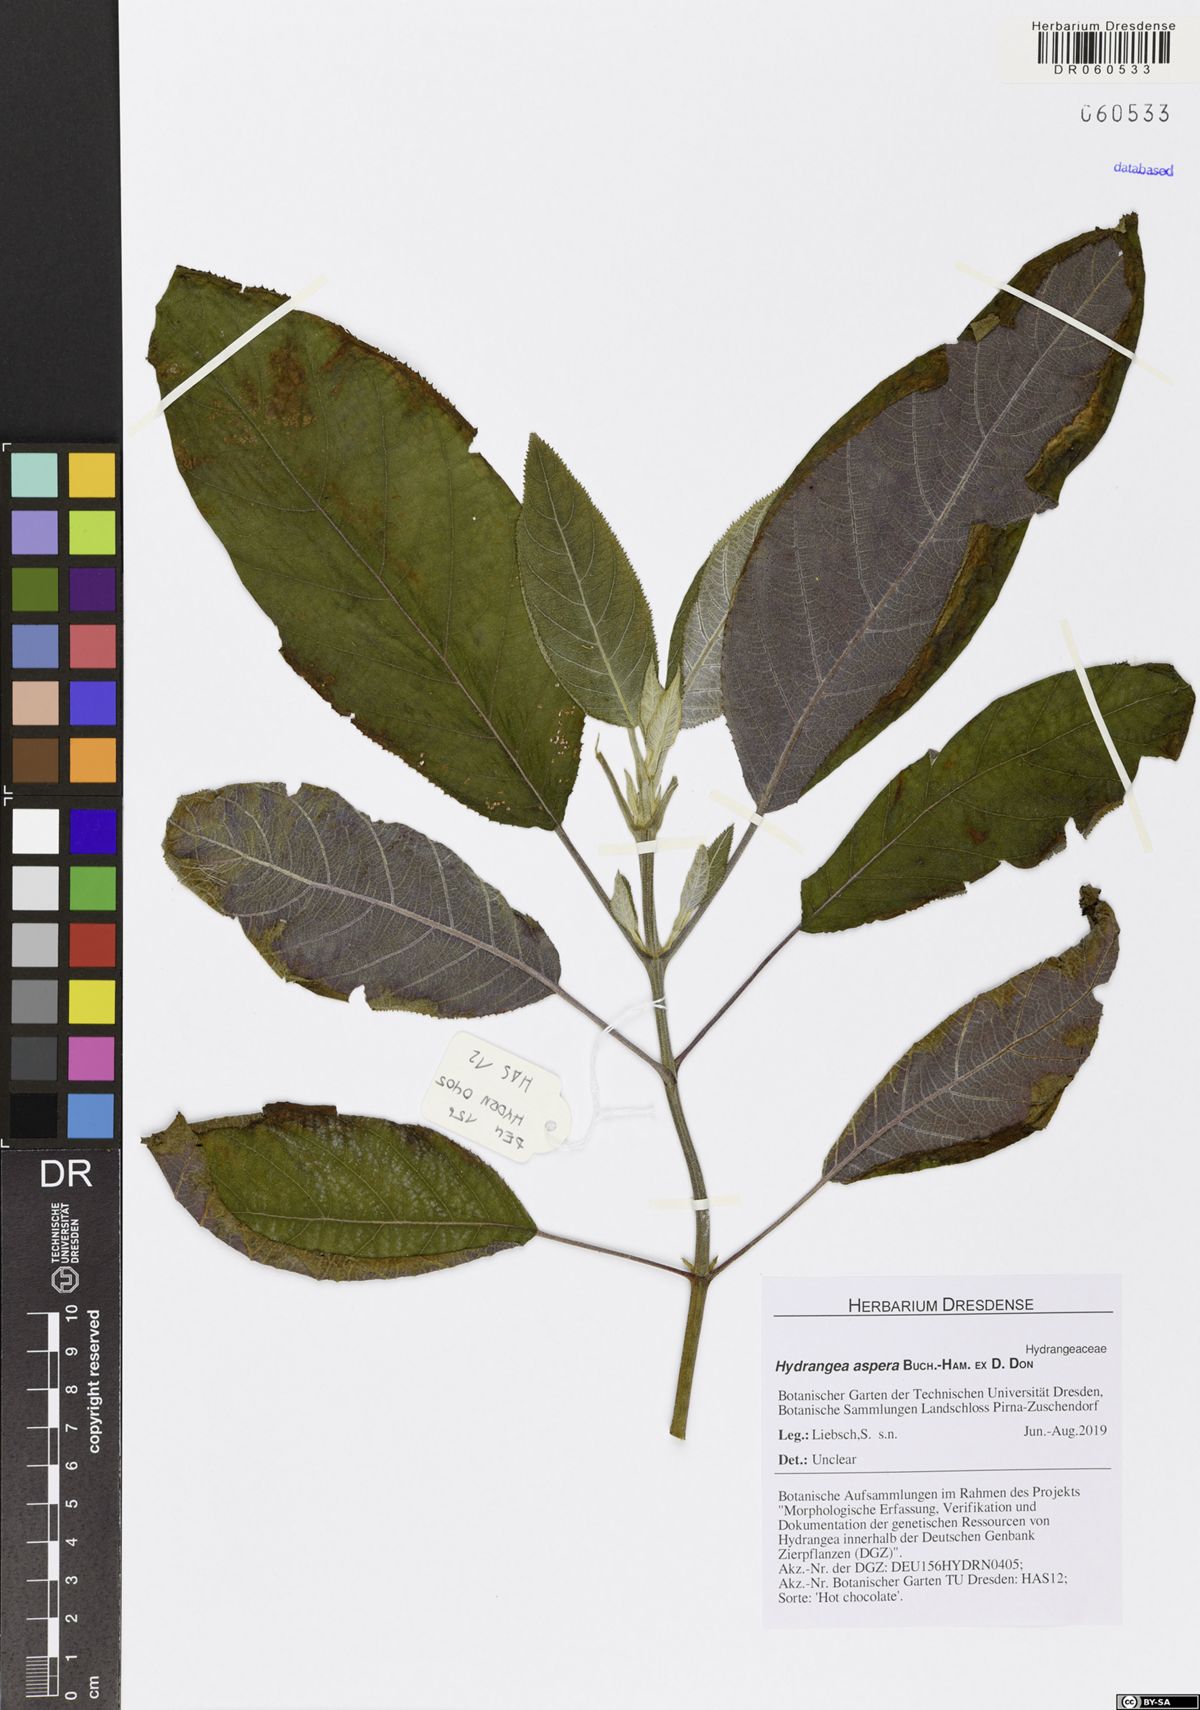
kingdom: Plantae
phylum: Tracheophyta
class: Magnoliopsida
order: Cornales
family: Hydrangeaceae
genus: Hydrangea
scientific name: Hydrangea aspera
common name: Rough-leaf hydrangea
